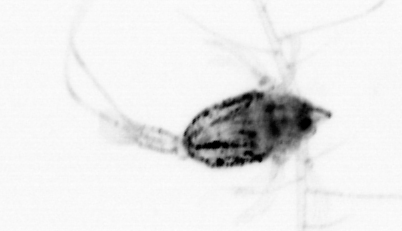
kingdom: Animalia
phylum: Arthropoda
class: Copepoda
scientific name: Copepoda
